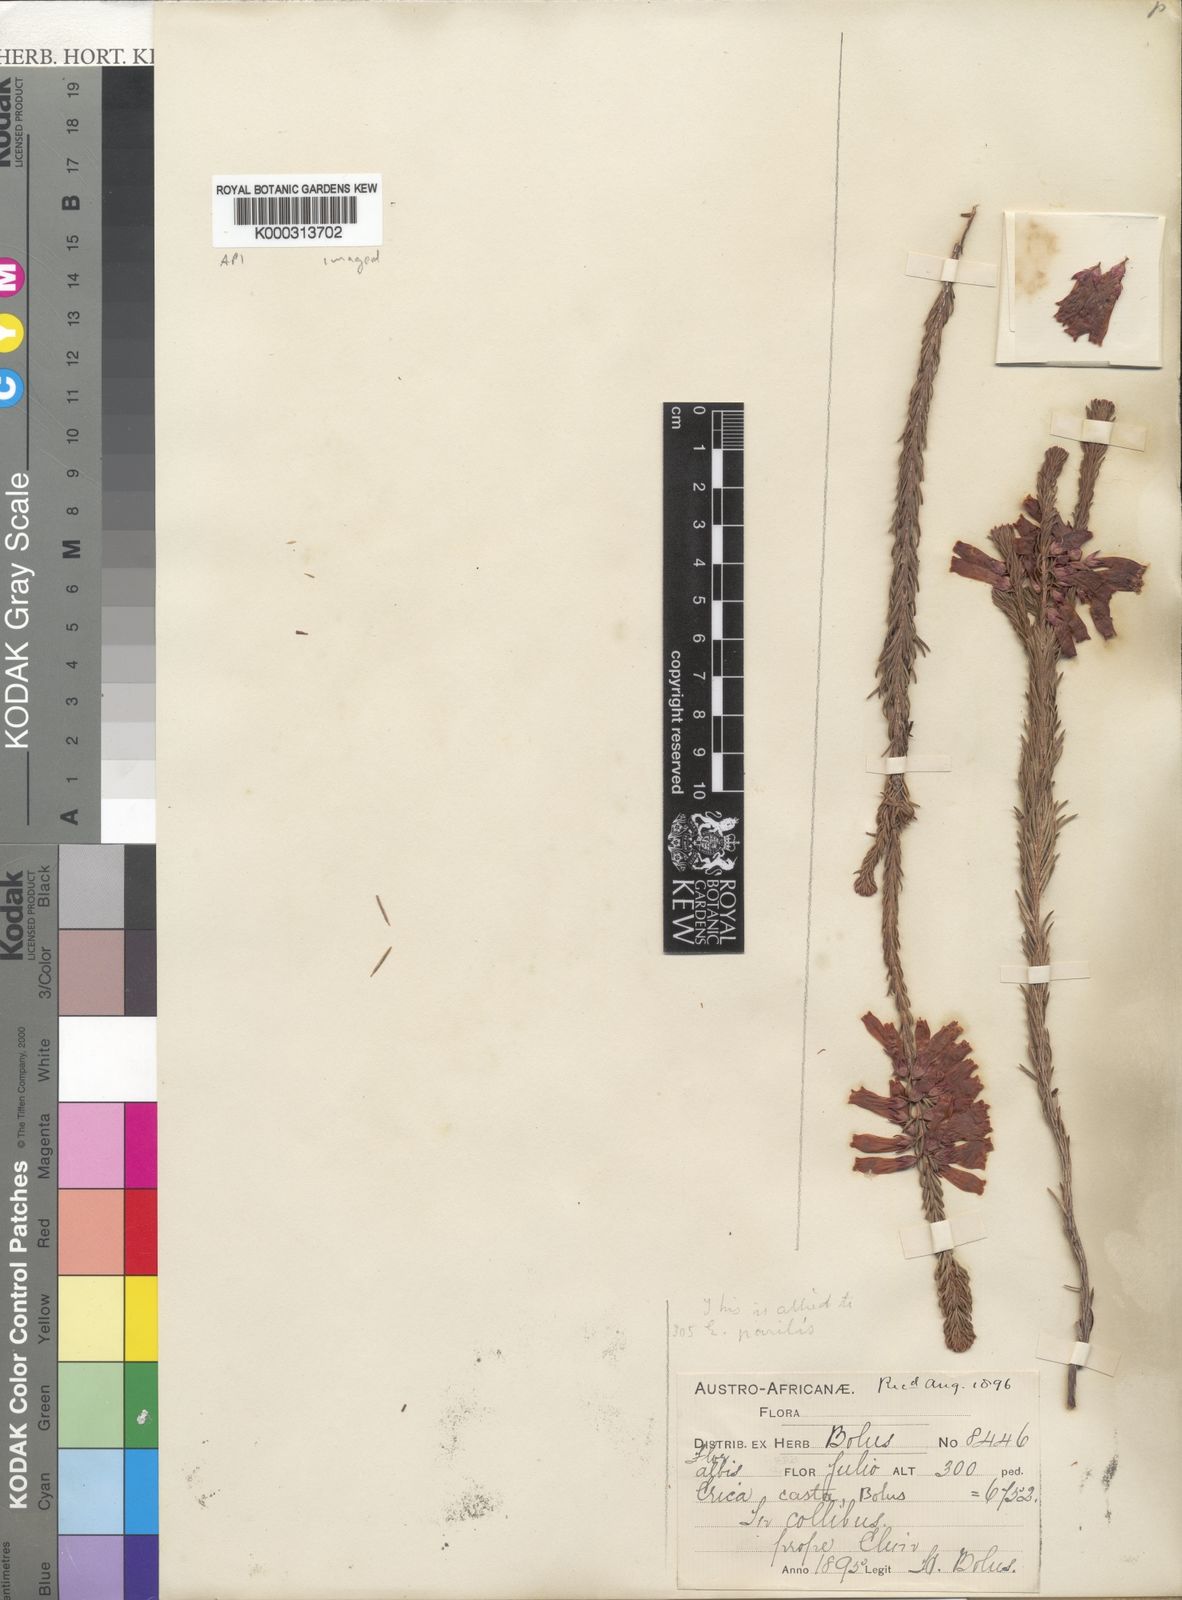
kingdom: Plantae
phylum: Tracheophyta
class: Magnoliopsida
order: Ericales
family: Ericaceae
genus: Erica
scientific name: Erica regia
